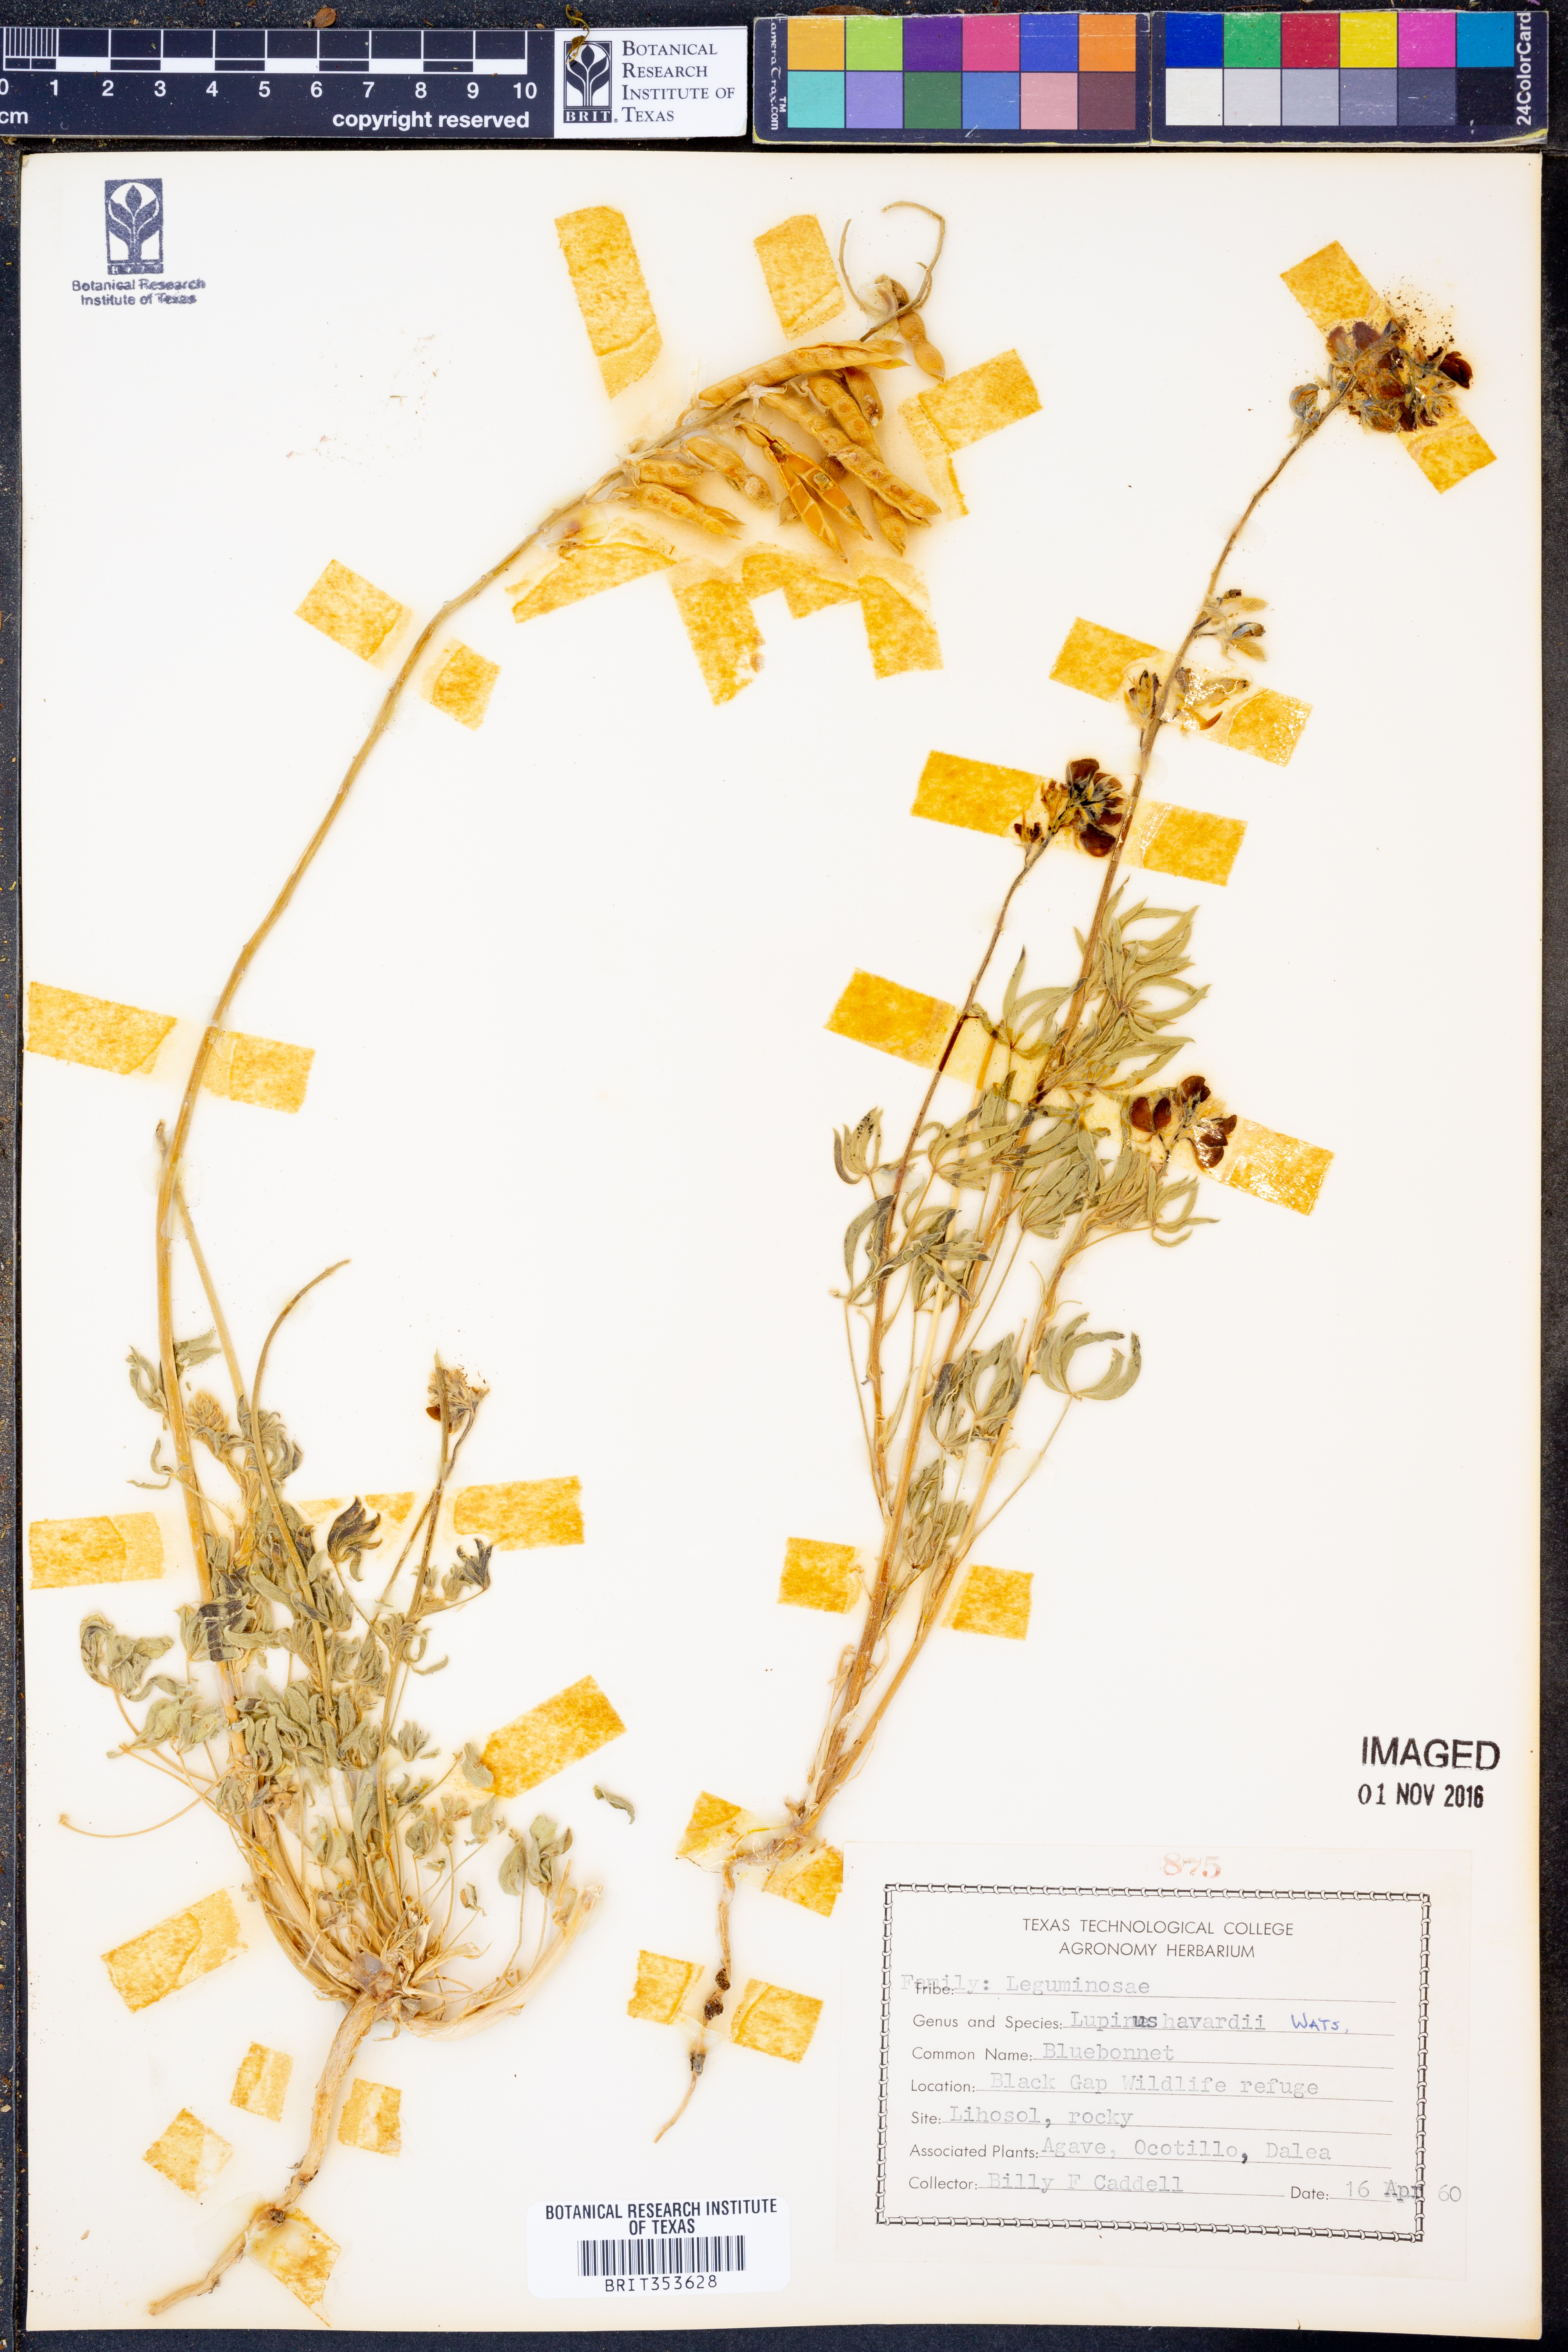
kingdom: Plantae
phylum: Tracheophyta
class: Magnoliopsida
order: Fabales
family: Fabaceae
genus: Lupinus
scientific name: Lupinus havardii
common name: Chisos bluebonnet
